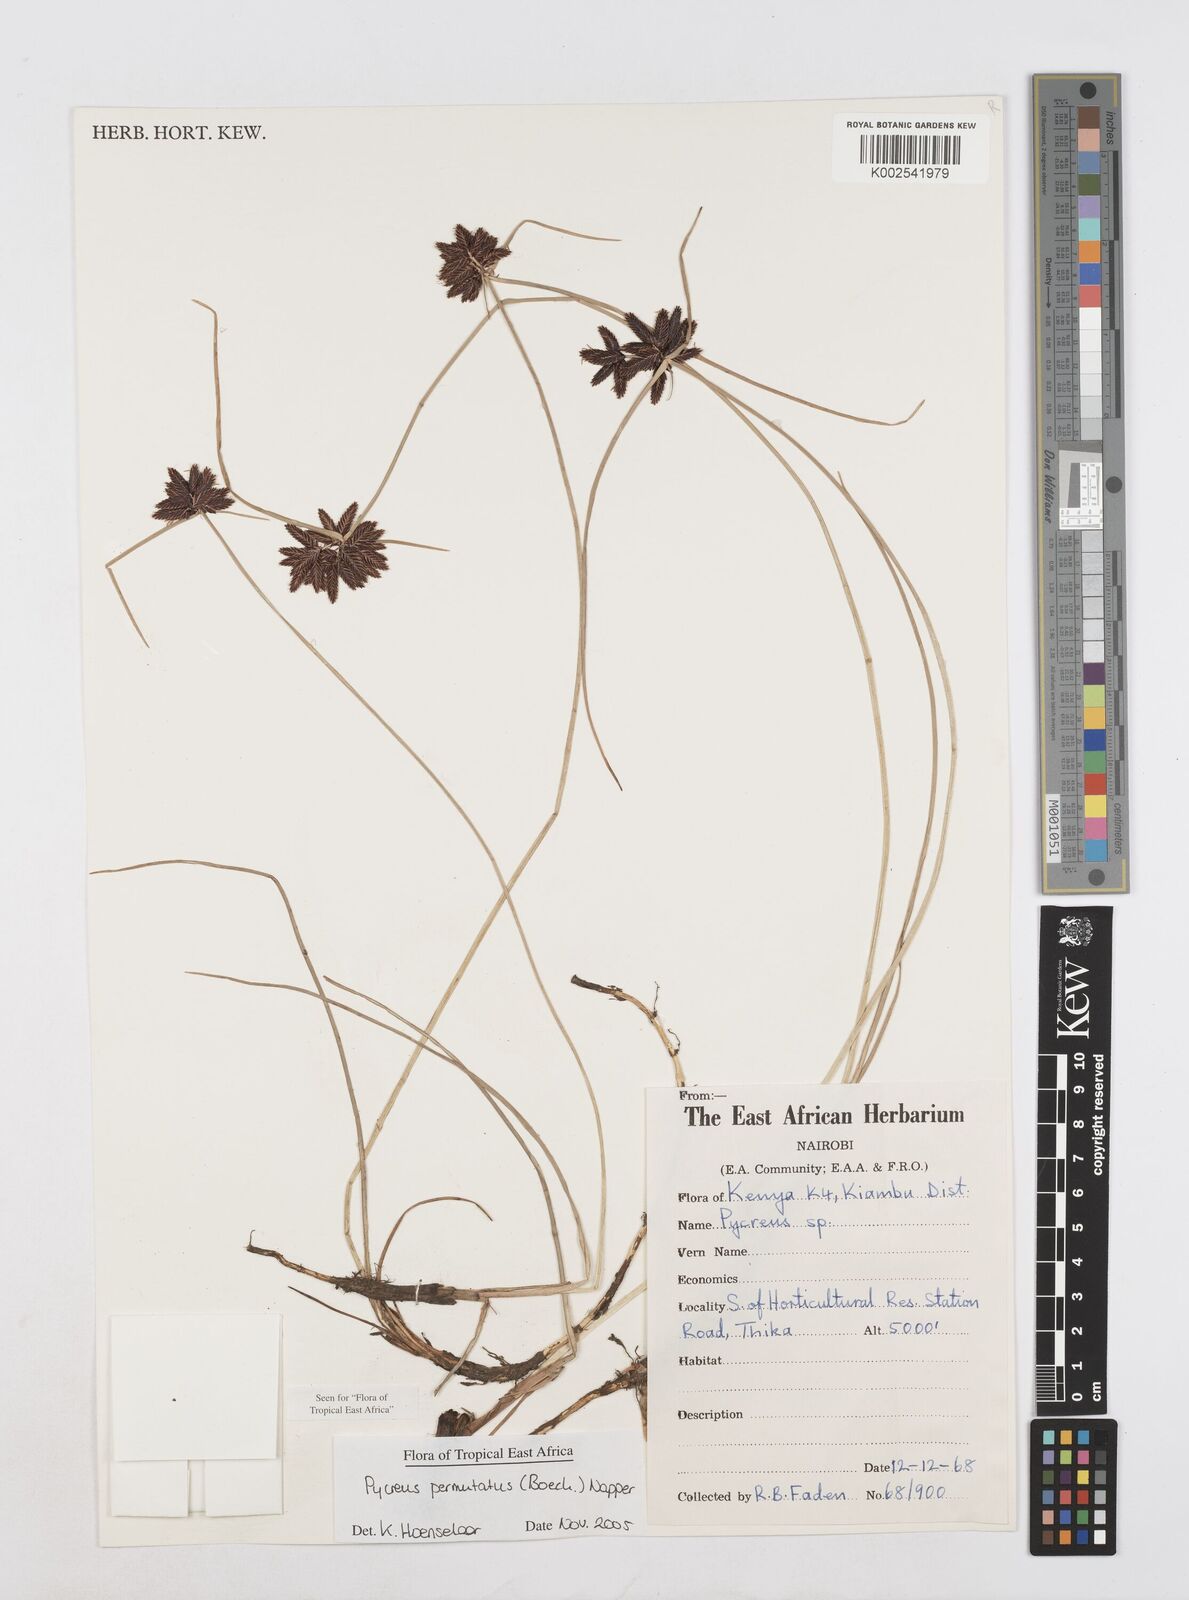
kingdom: Plantae
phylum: Tracheophyta
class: Liliopsida
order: Poales
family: Cyperaceae
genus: Cyperus
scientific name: Cyperus nigricans
